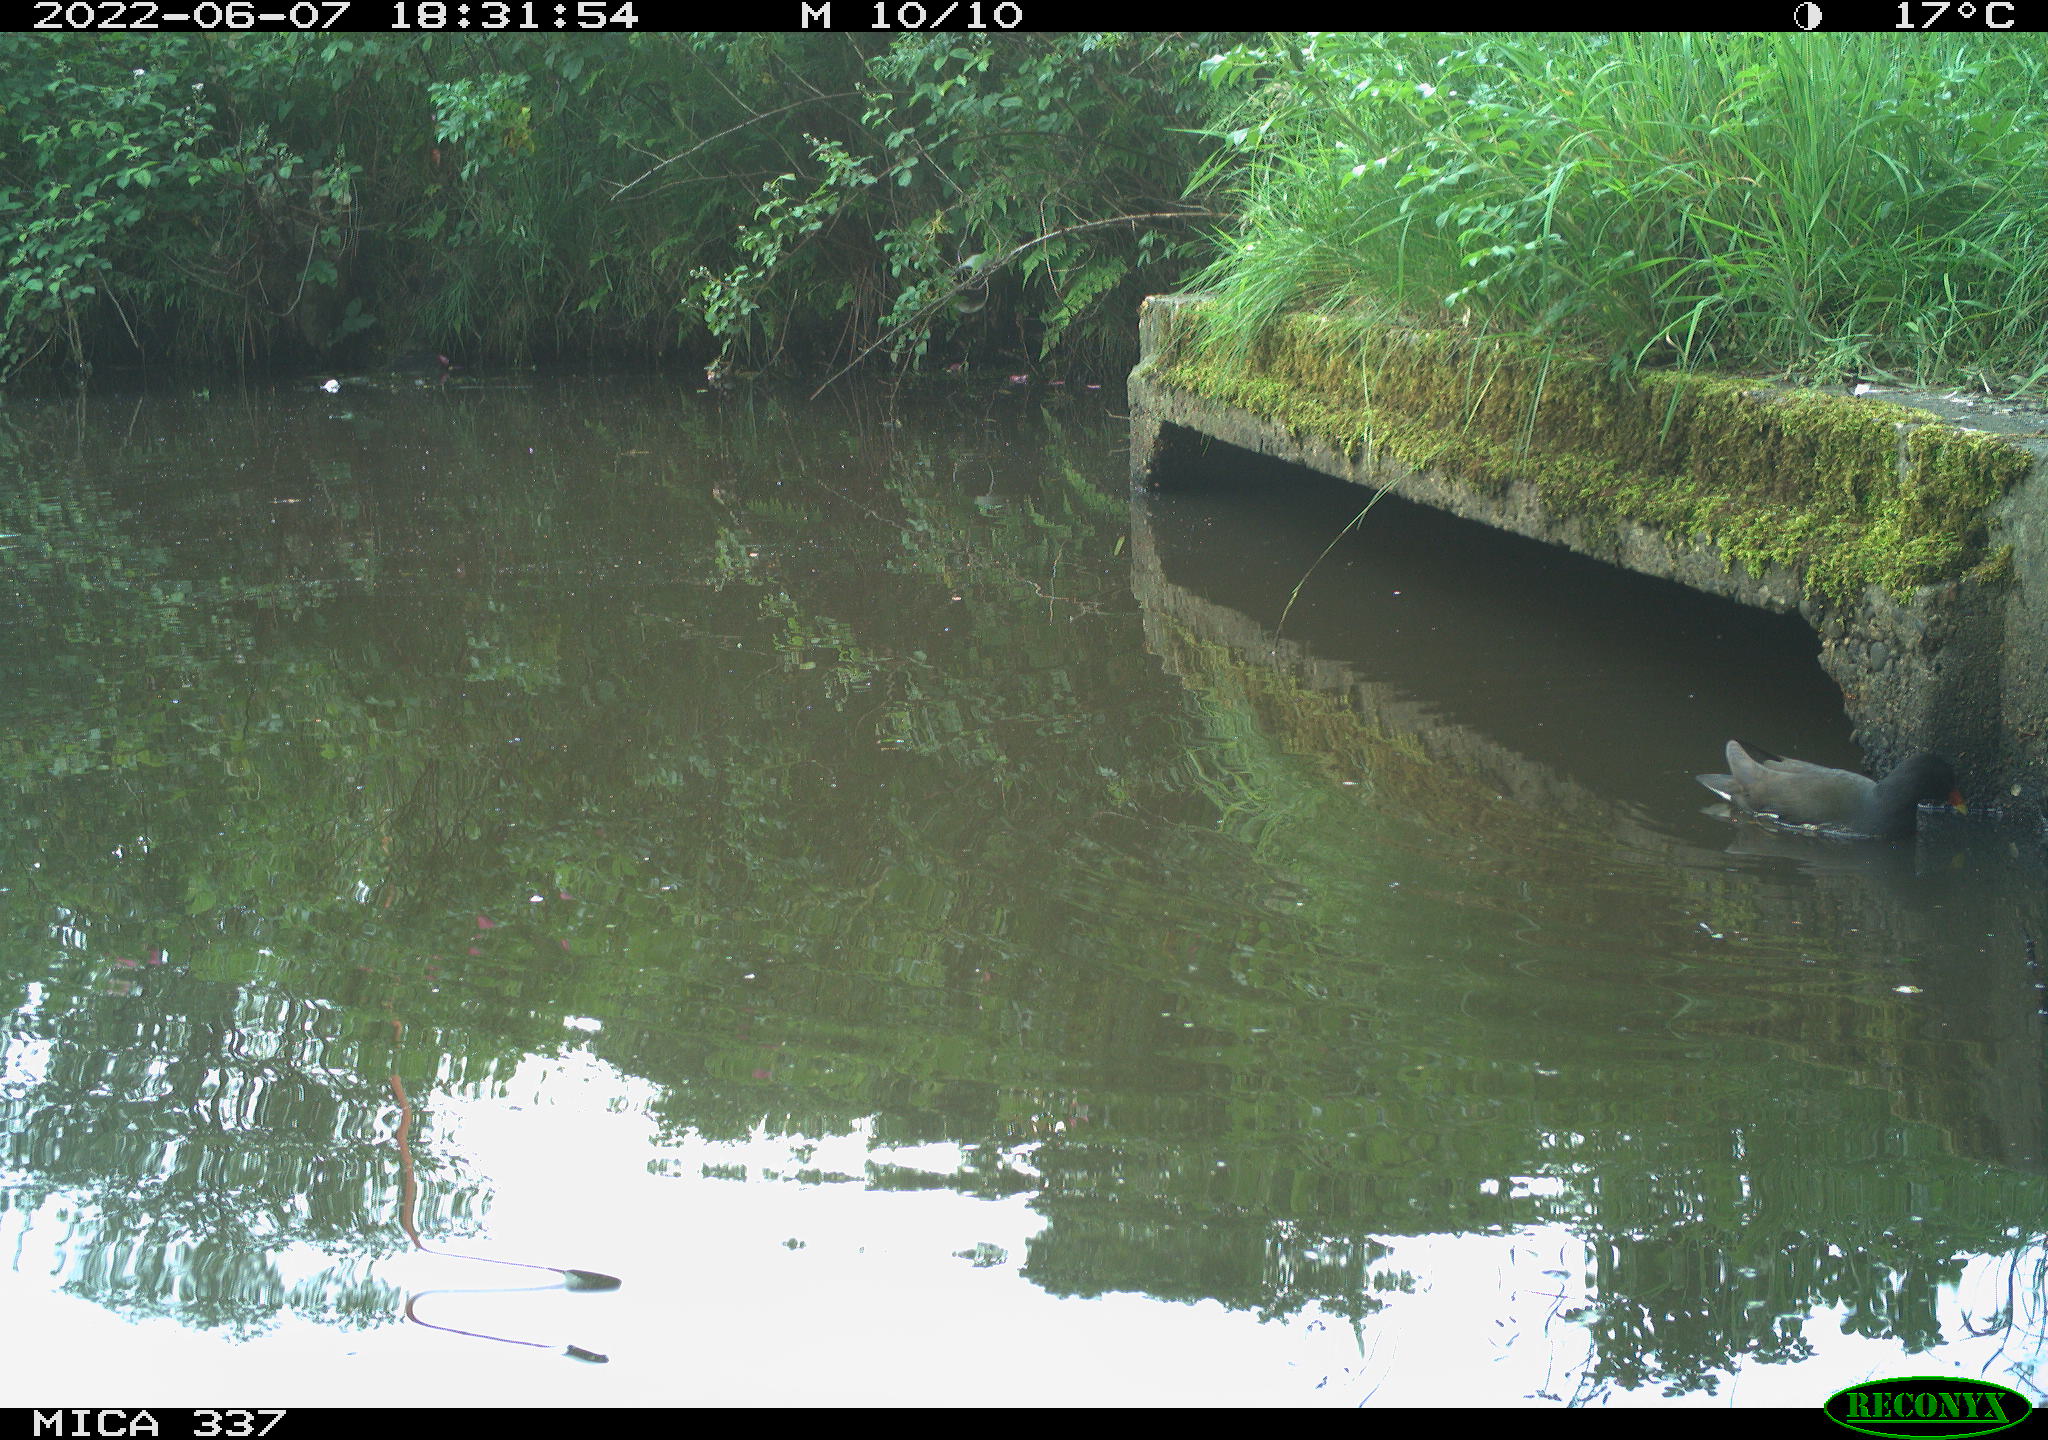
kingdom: Animalia
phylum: Chordata
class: Aves
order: Gruiformes
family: Rallidae
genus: Gallinula
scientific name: Gallinula chloropus
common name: Common moorhen
